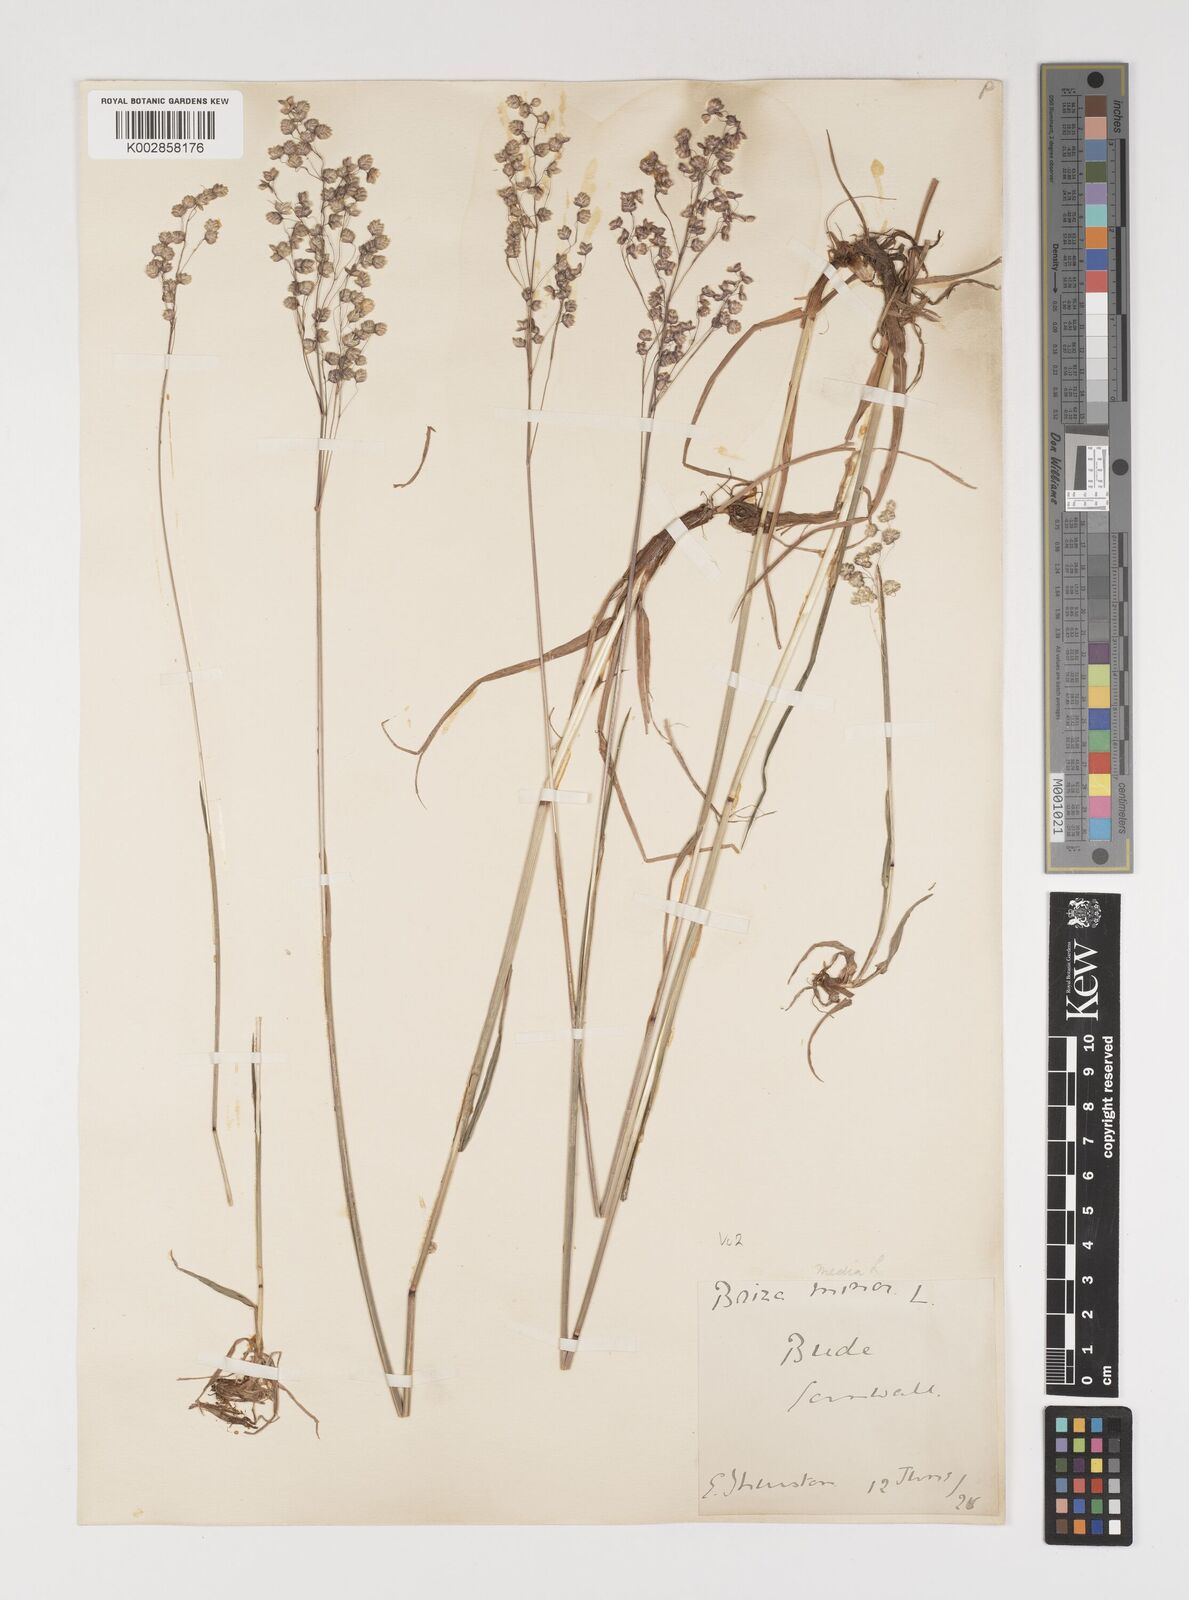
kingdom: Plantae
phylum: Tracheophyta
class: Liliopsida
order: Poales
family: Poaceae
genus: Briza
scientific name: Briza media
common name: Quaking grass
